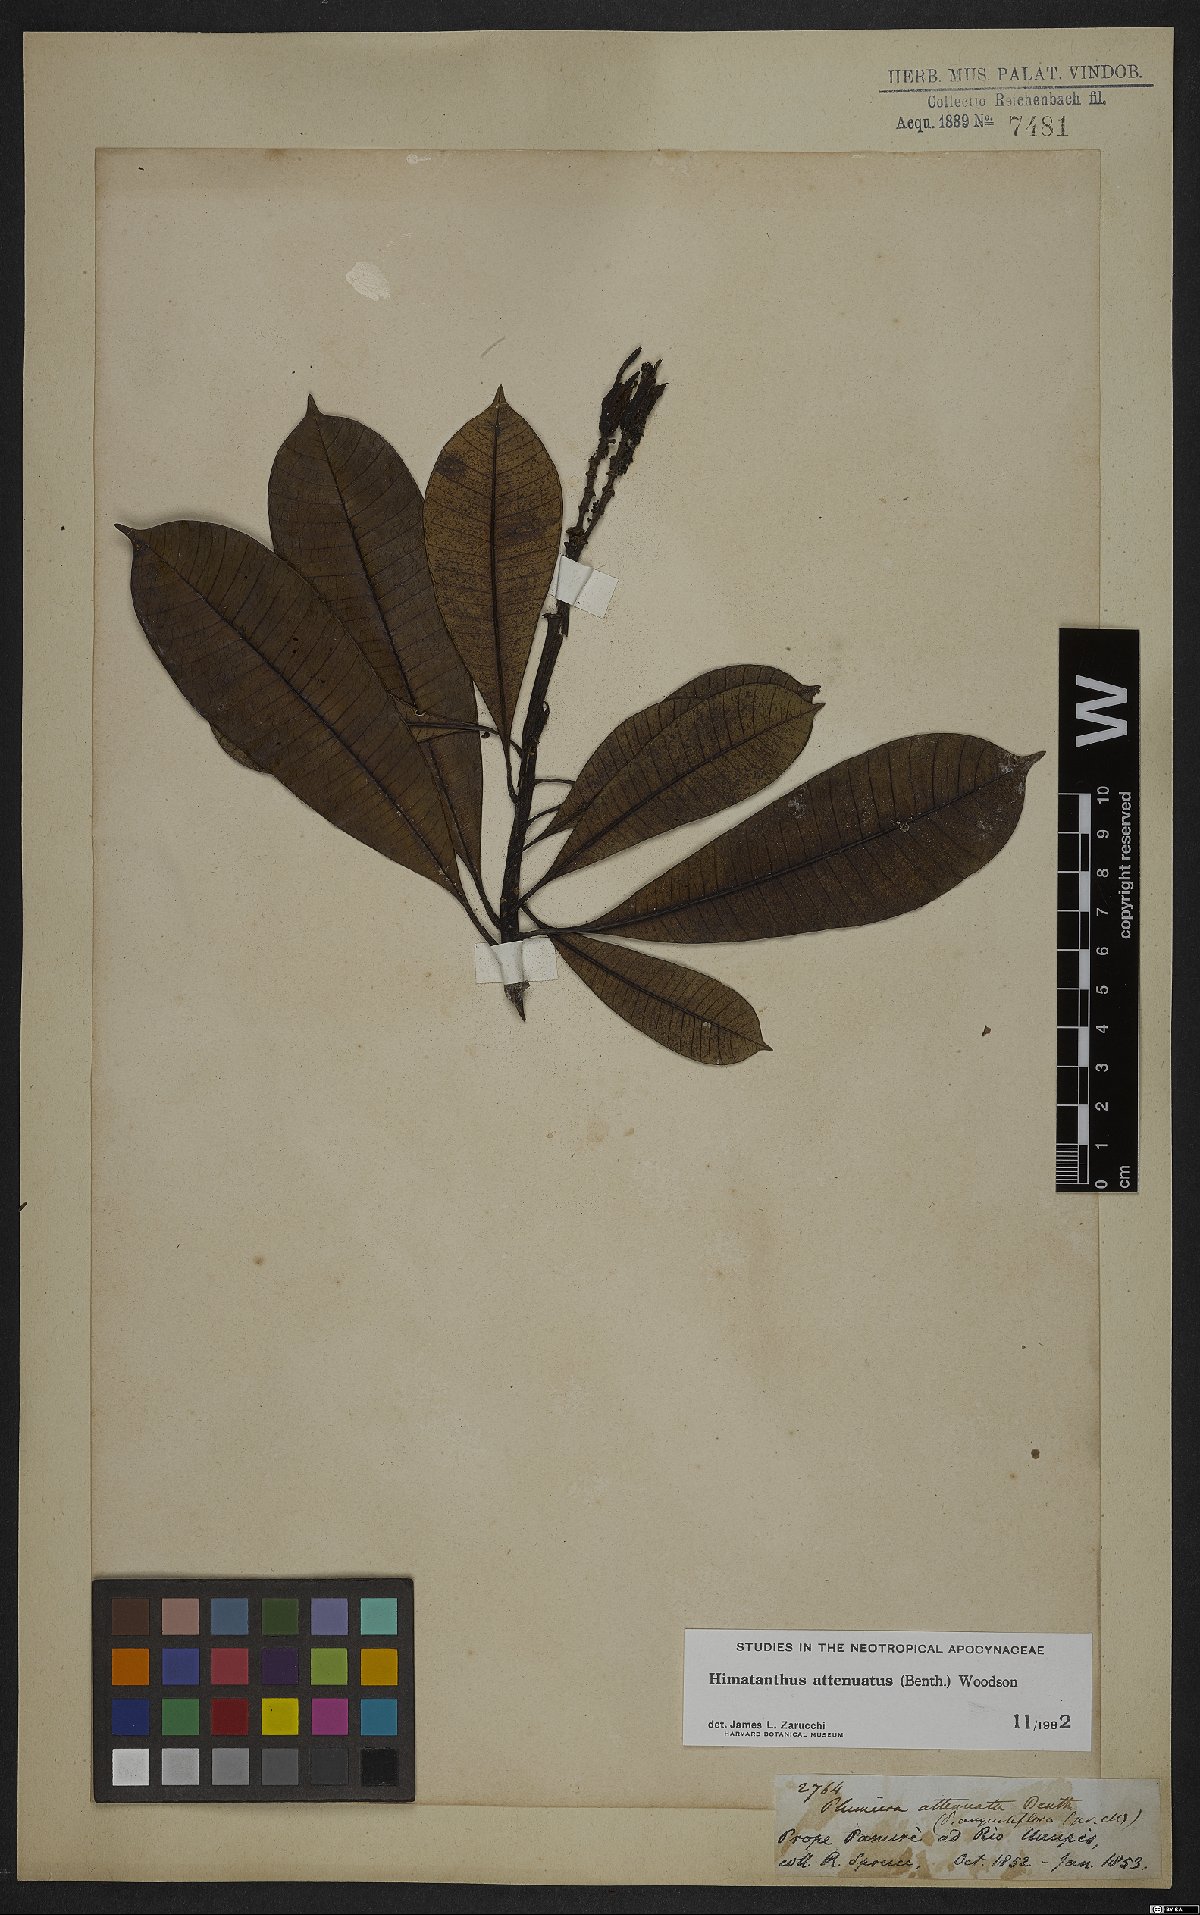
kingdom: Plantae
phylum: Tracheophyta
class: Magnoliopsida
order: Gentianales
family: Apocynaceae
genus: Himatanthus
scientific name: Himatanthus attenuatus
